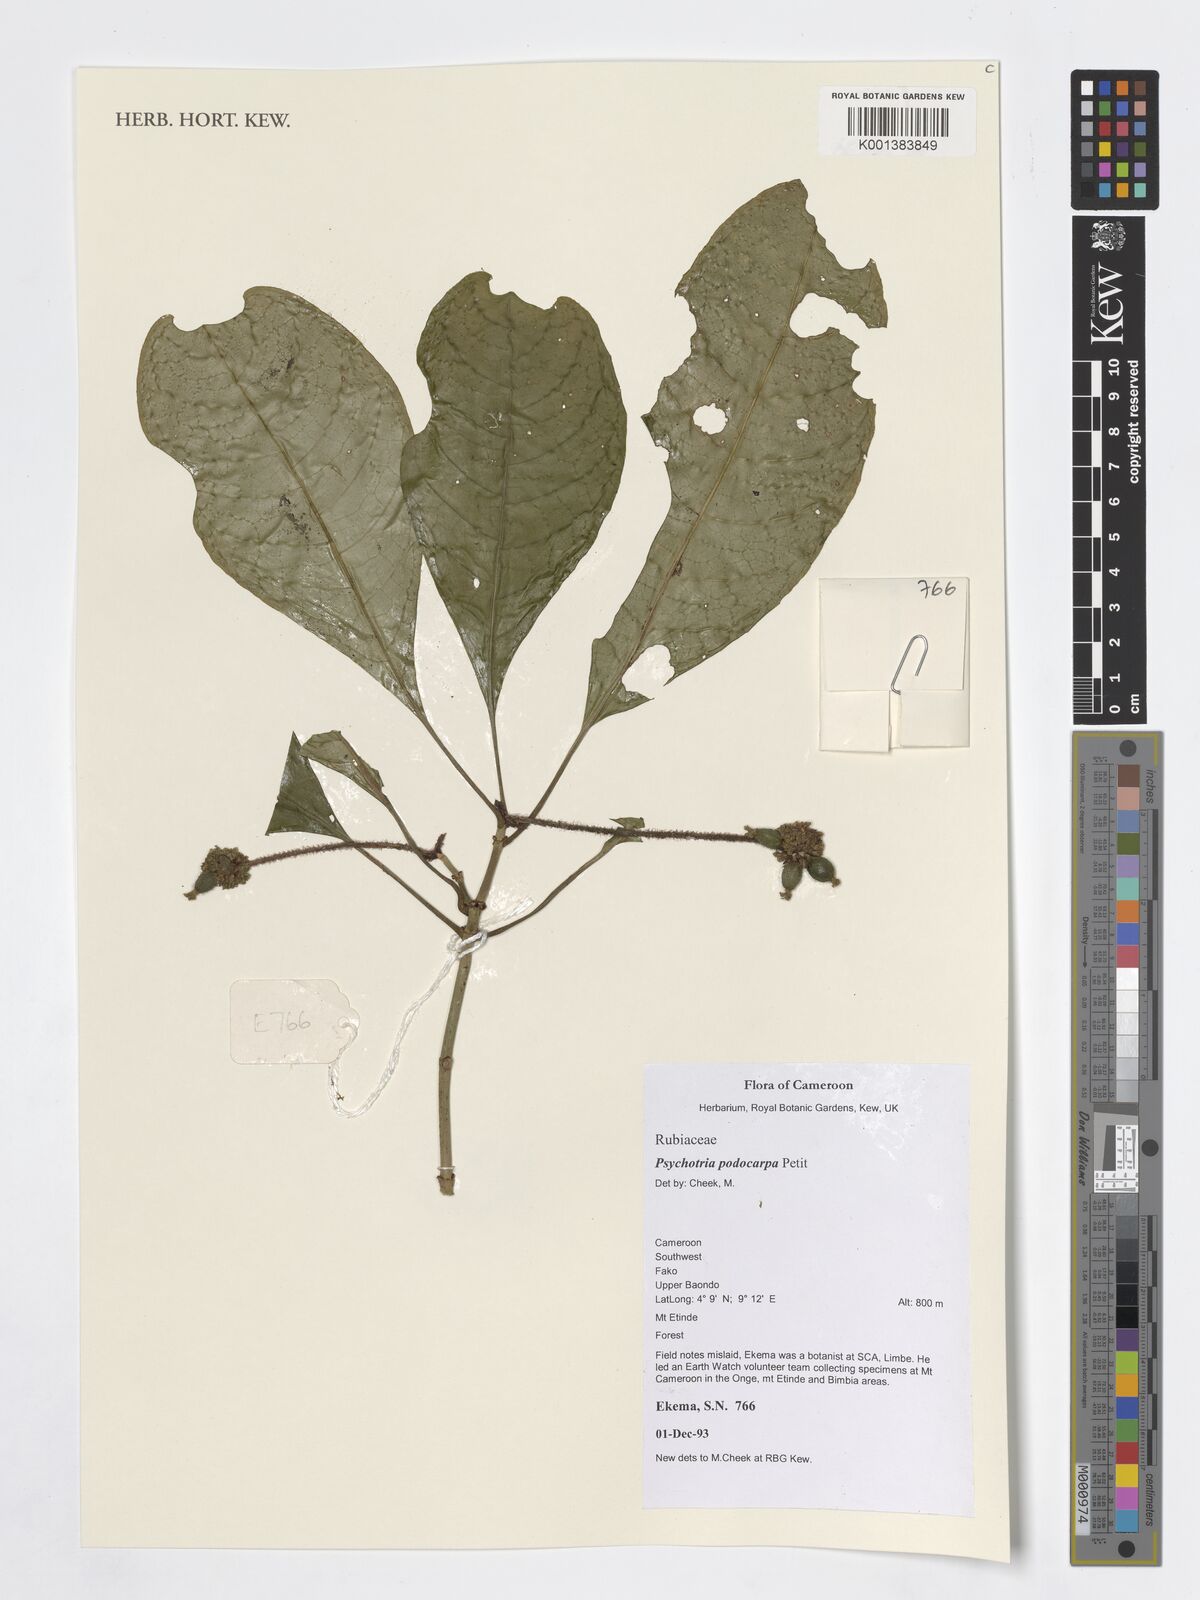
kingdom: Plantae
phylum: Tracheophyta
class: Magnoliopsida
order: Gentianales
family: Rubiaceae
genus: Psychotria
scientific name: Psychotria podocarpa
